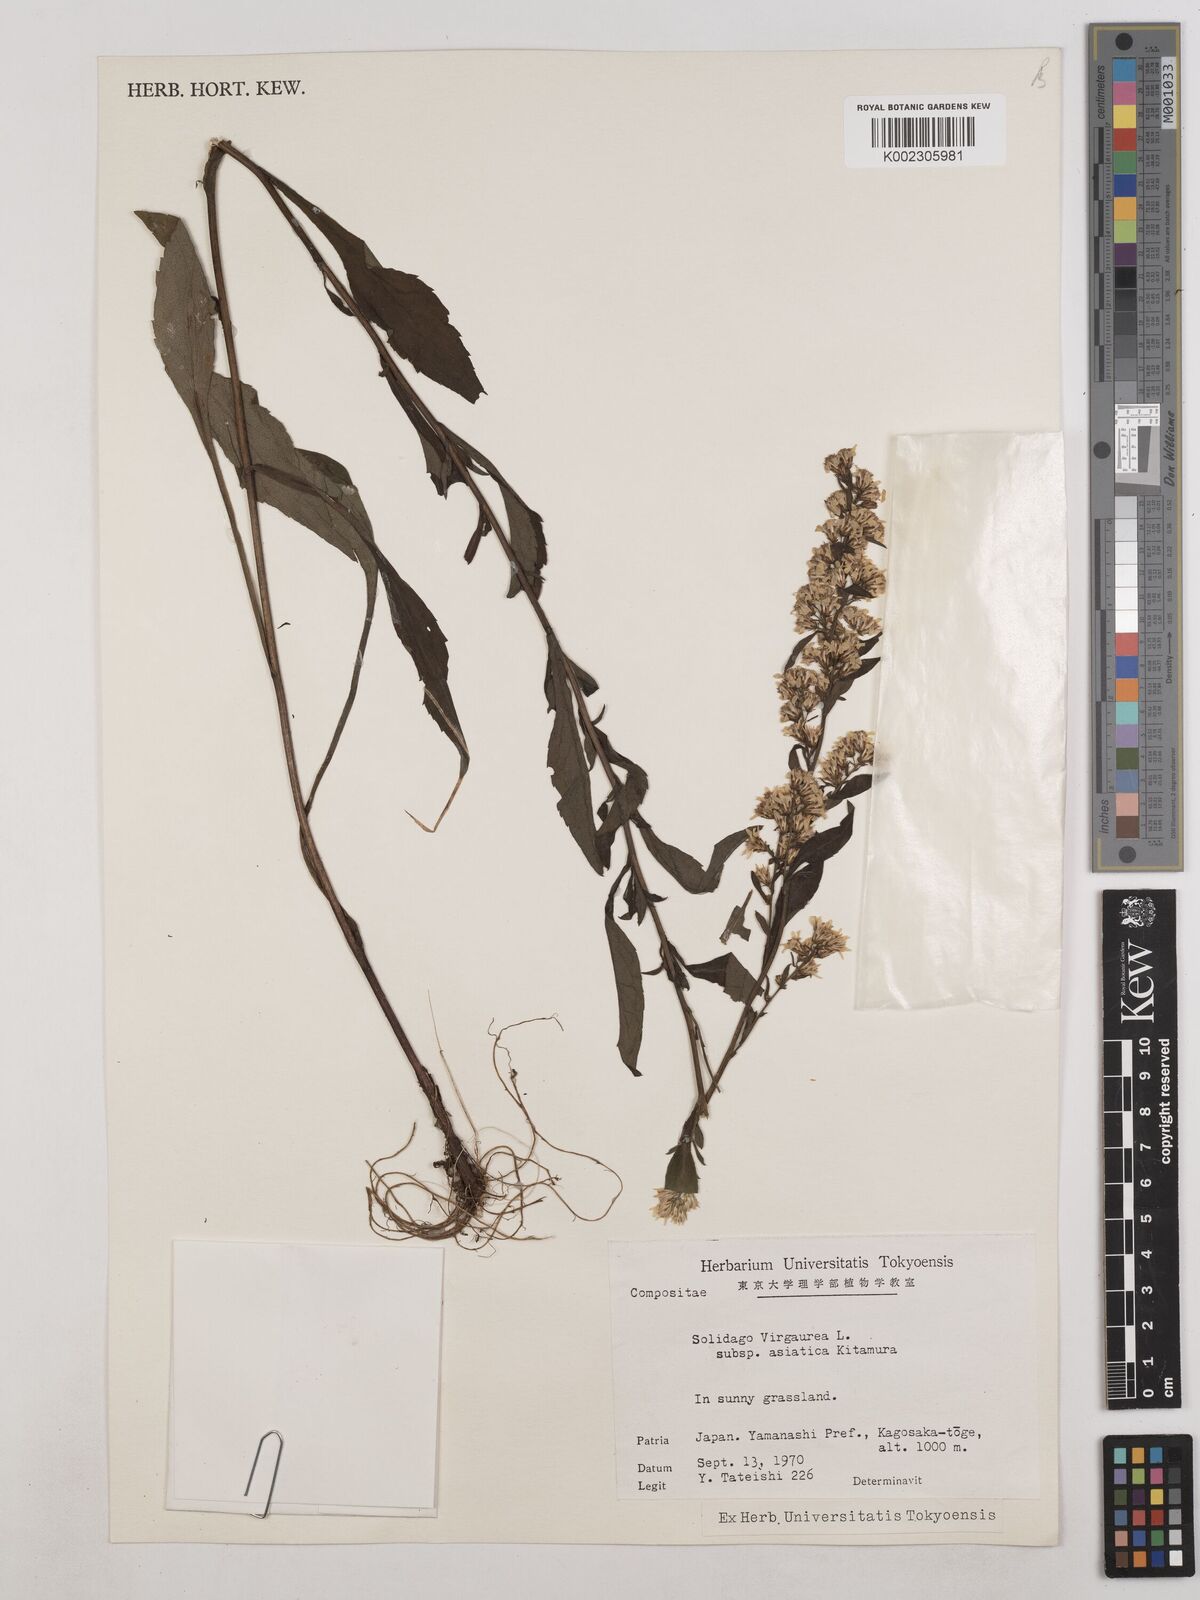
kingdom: Plantae
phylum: Tracheophyta
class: Magnoliopsida
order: Asterales
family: Asteraceae
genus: Solidago
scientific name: Solidago virgaurea
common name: Goldenrod
